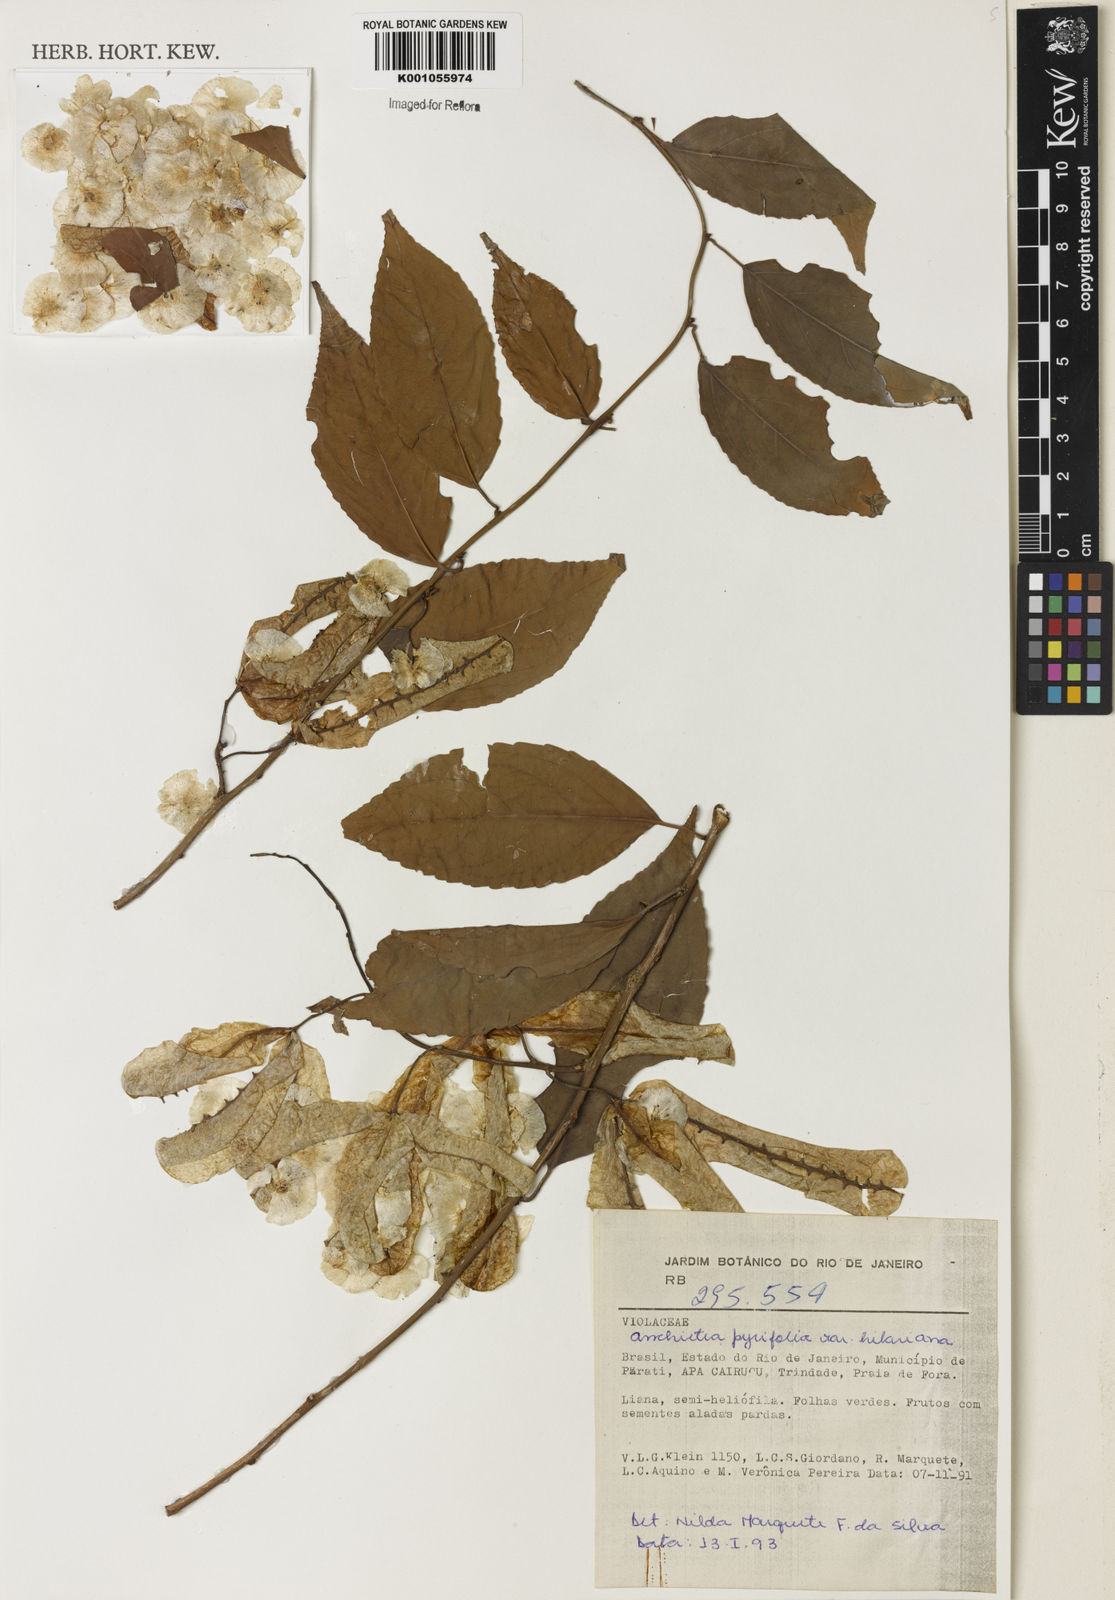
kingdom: Plantae
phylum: Tracheophyta
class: Magnoliopsida
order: Malpighiales
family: Violaceae
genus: Anchietea
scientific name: Anchietea pyrifolia
